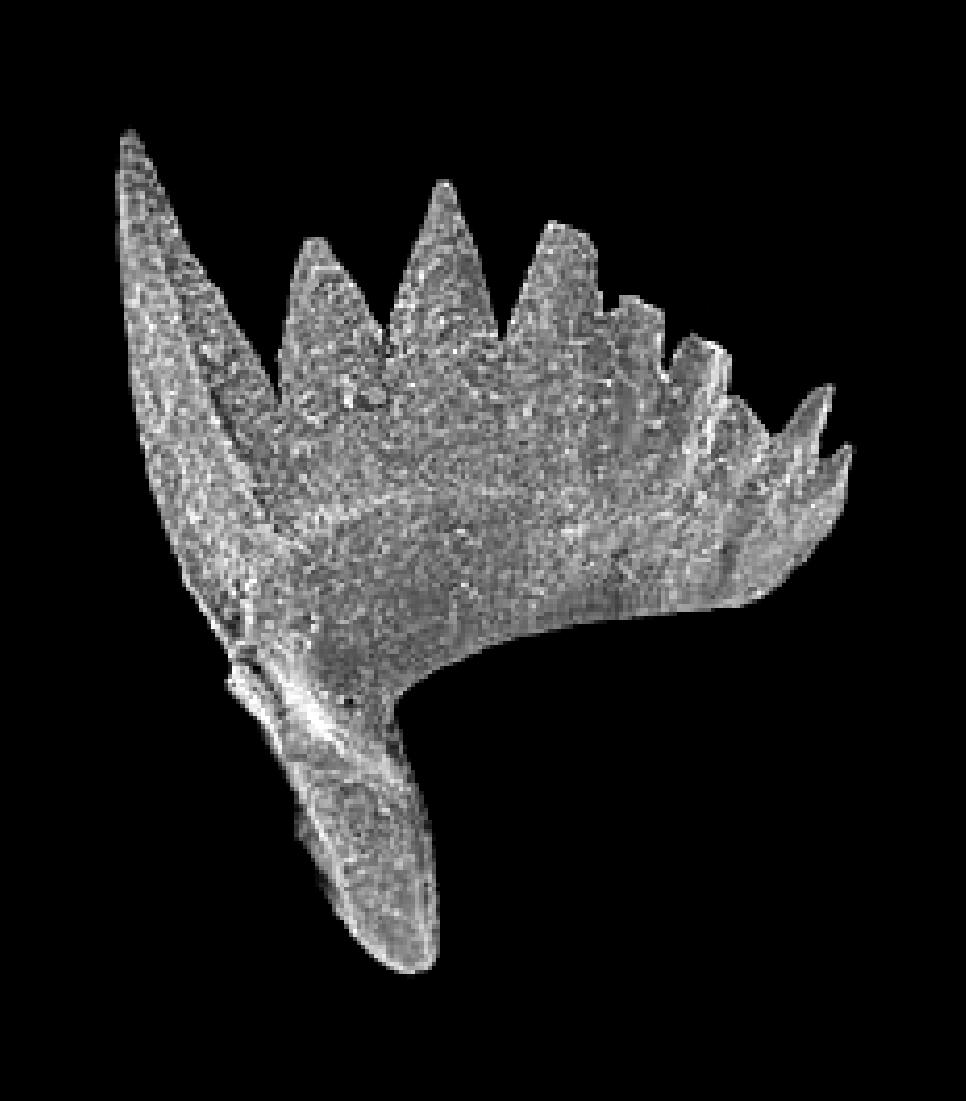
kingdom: Animalia
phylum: Chordata
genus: Oepikodus
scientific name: Oepikodus
